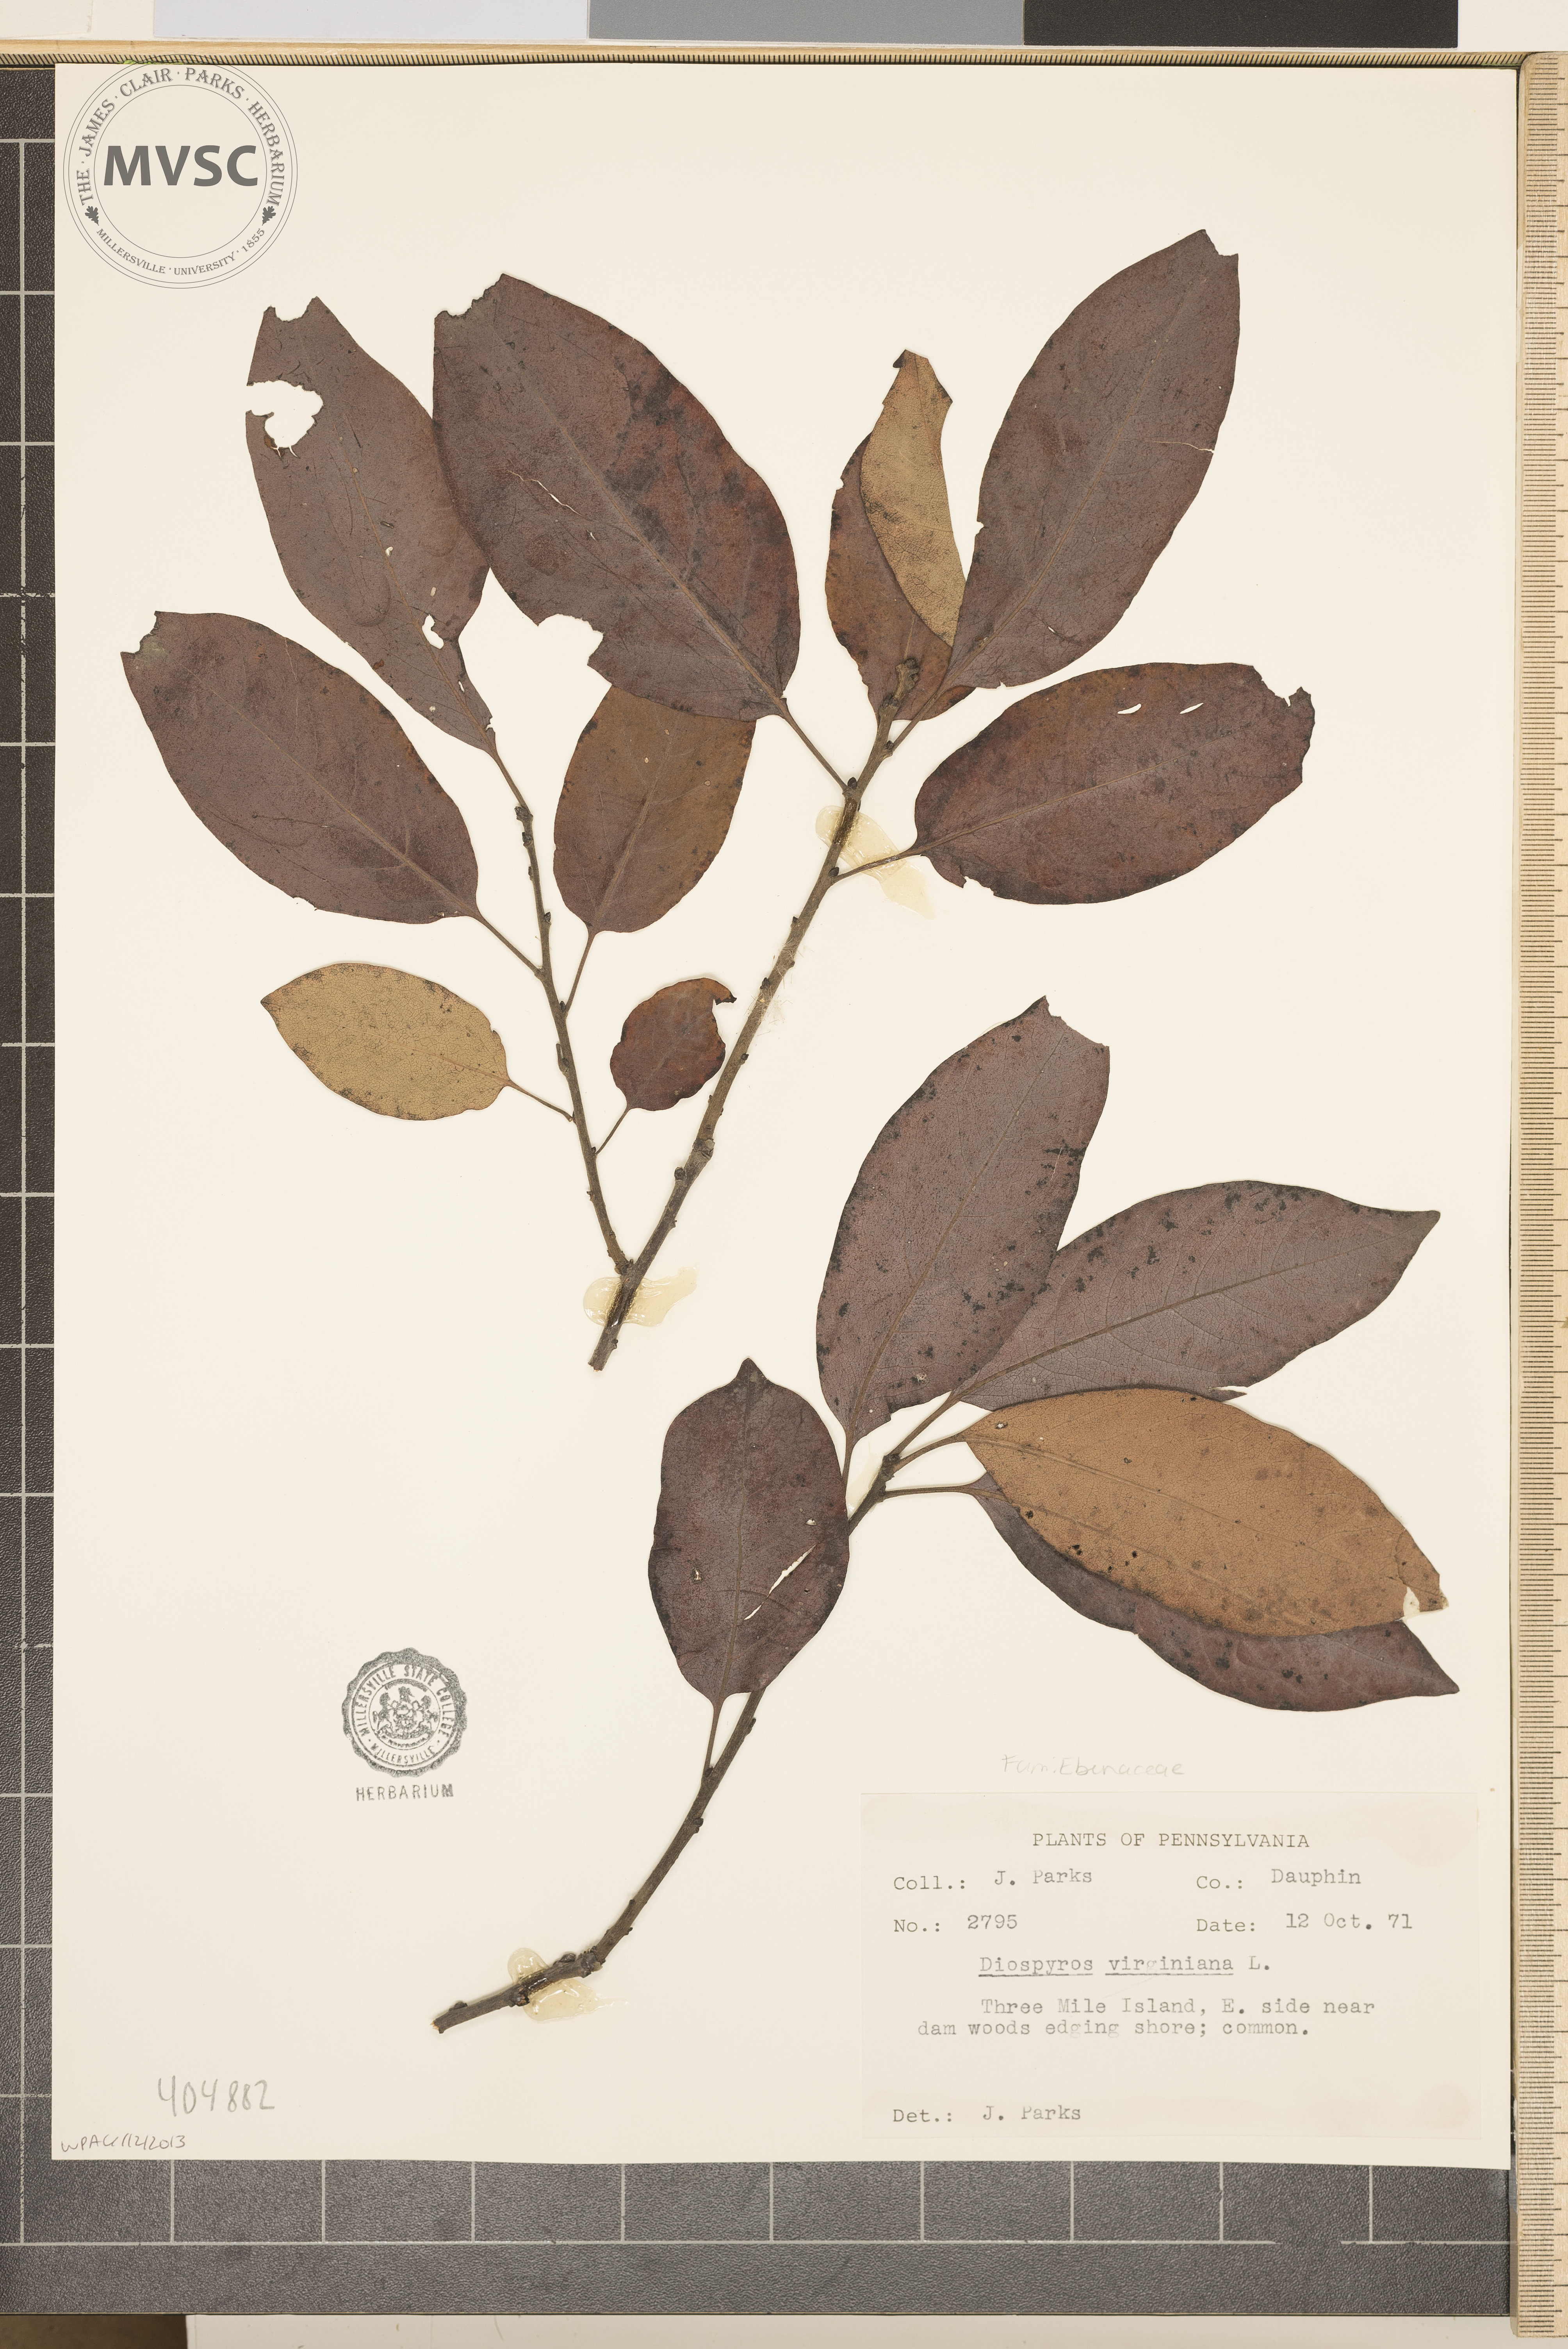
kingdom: Plantae
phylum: Tracheophyta
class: Magnoliopsida
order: Ericales
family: Ebenaceae
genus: Diospyros
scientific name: Diospyros virginiana
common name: Persimmon
